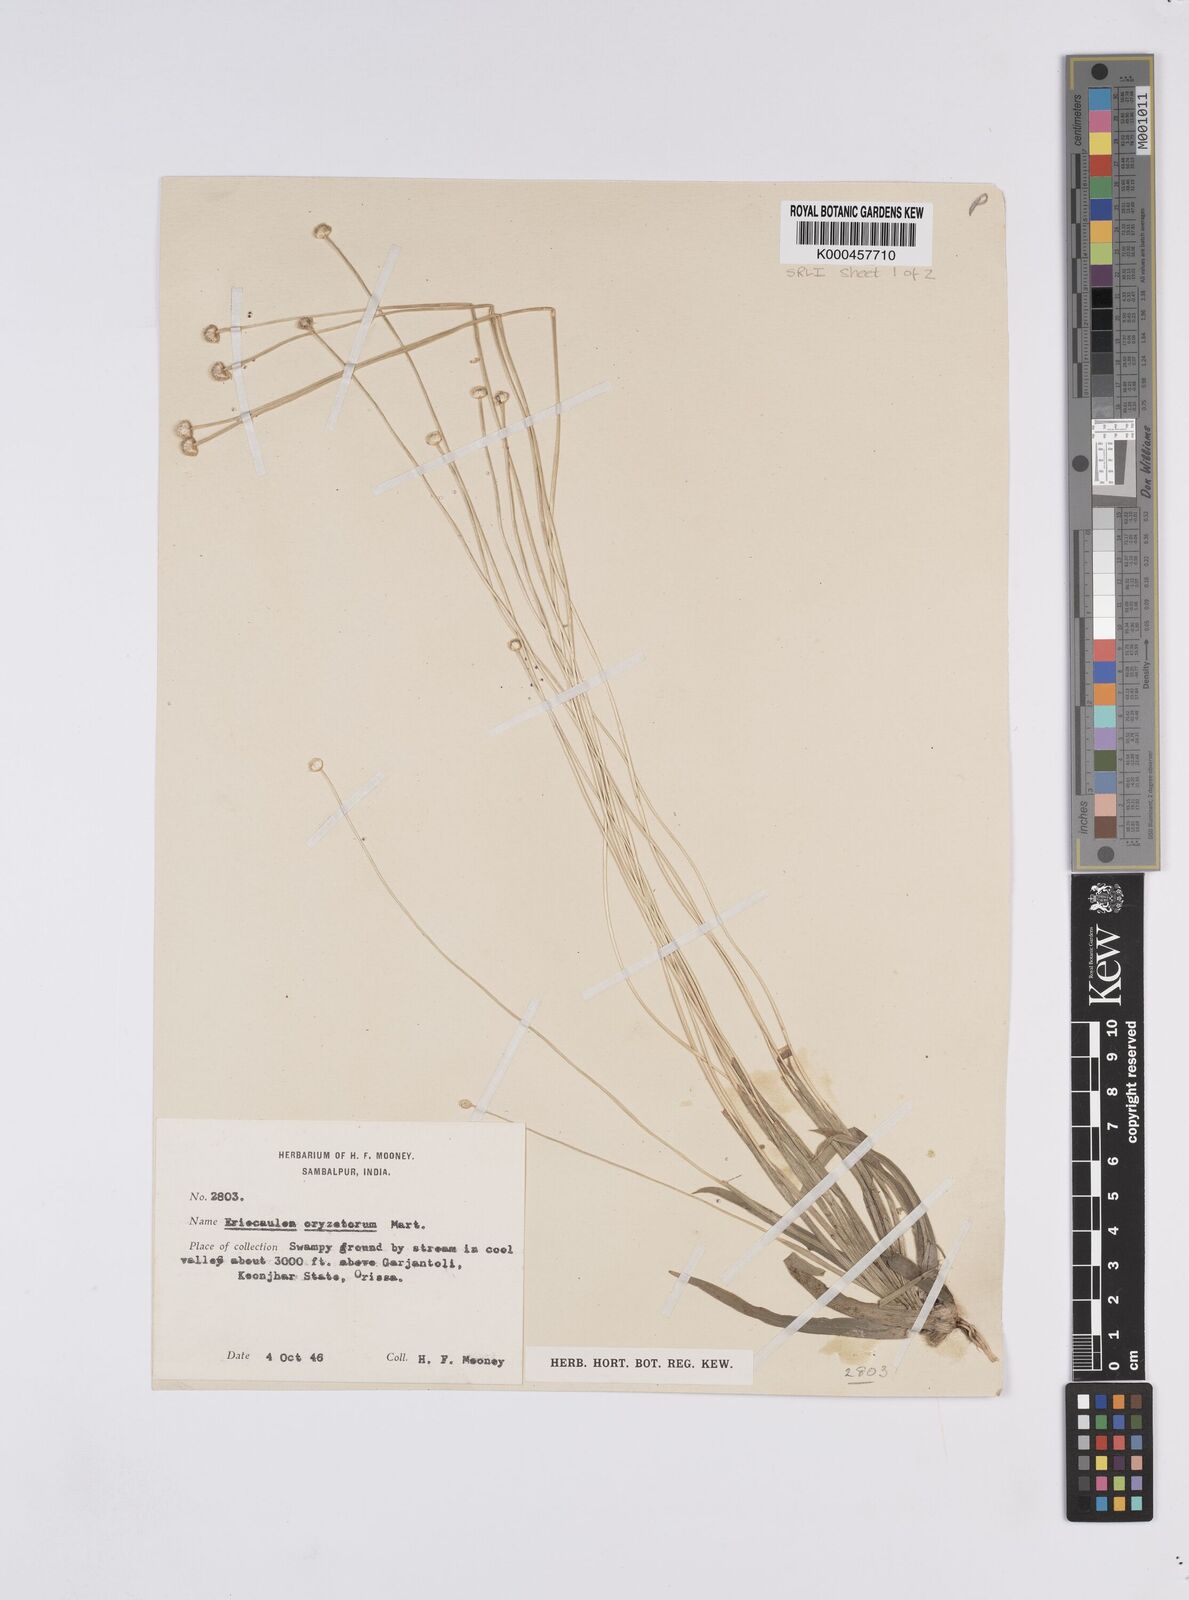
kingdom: Plantae
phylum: Tracheophyta
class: Liliopsida
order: Poales
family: Eriocaulaceae
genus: Eriocaulon
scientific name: Eriocaulon oryzetorum
